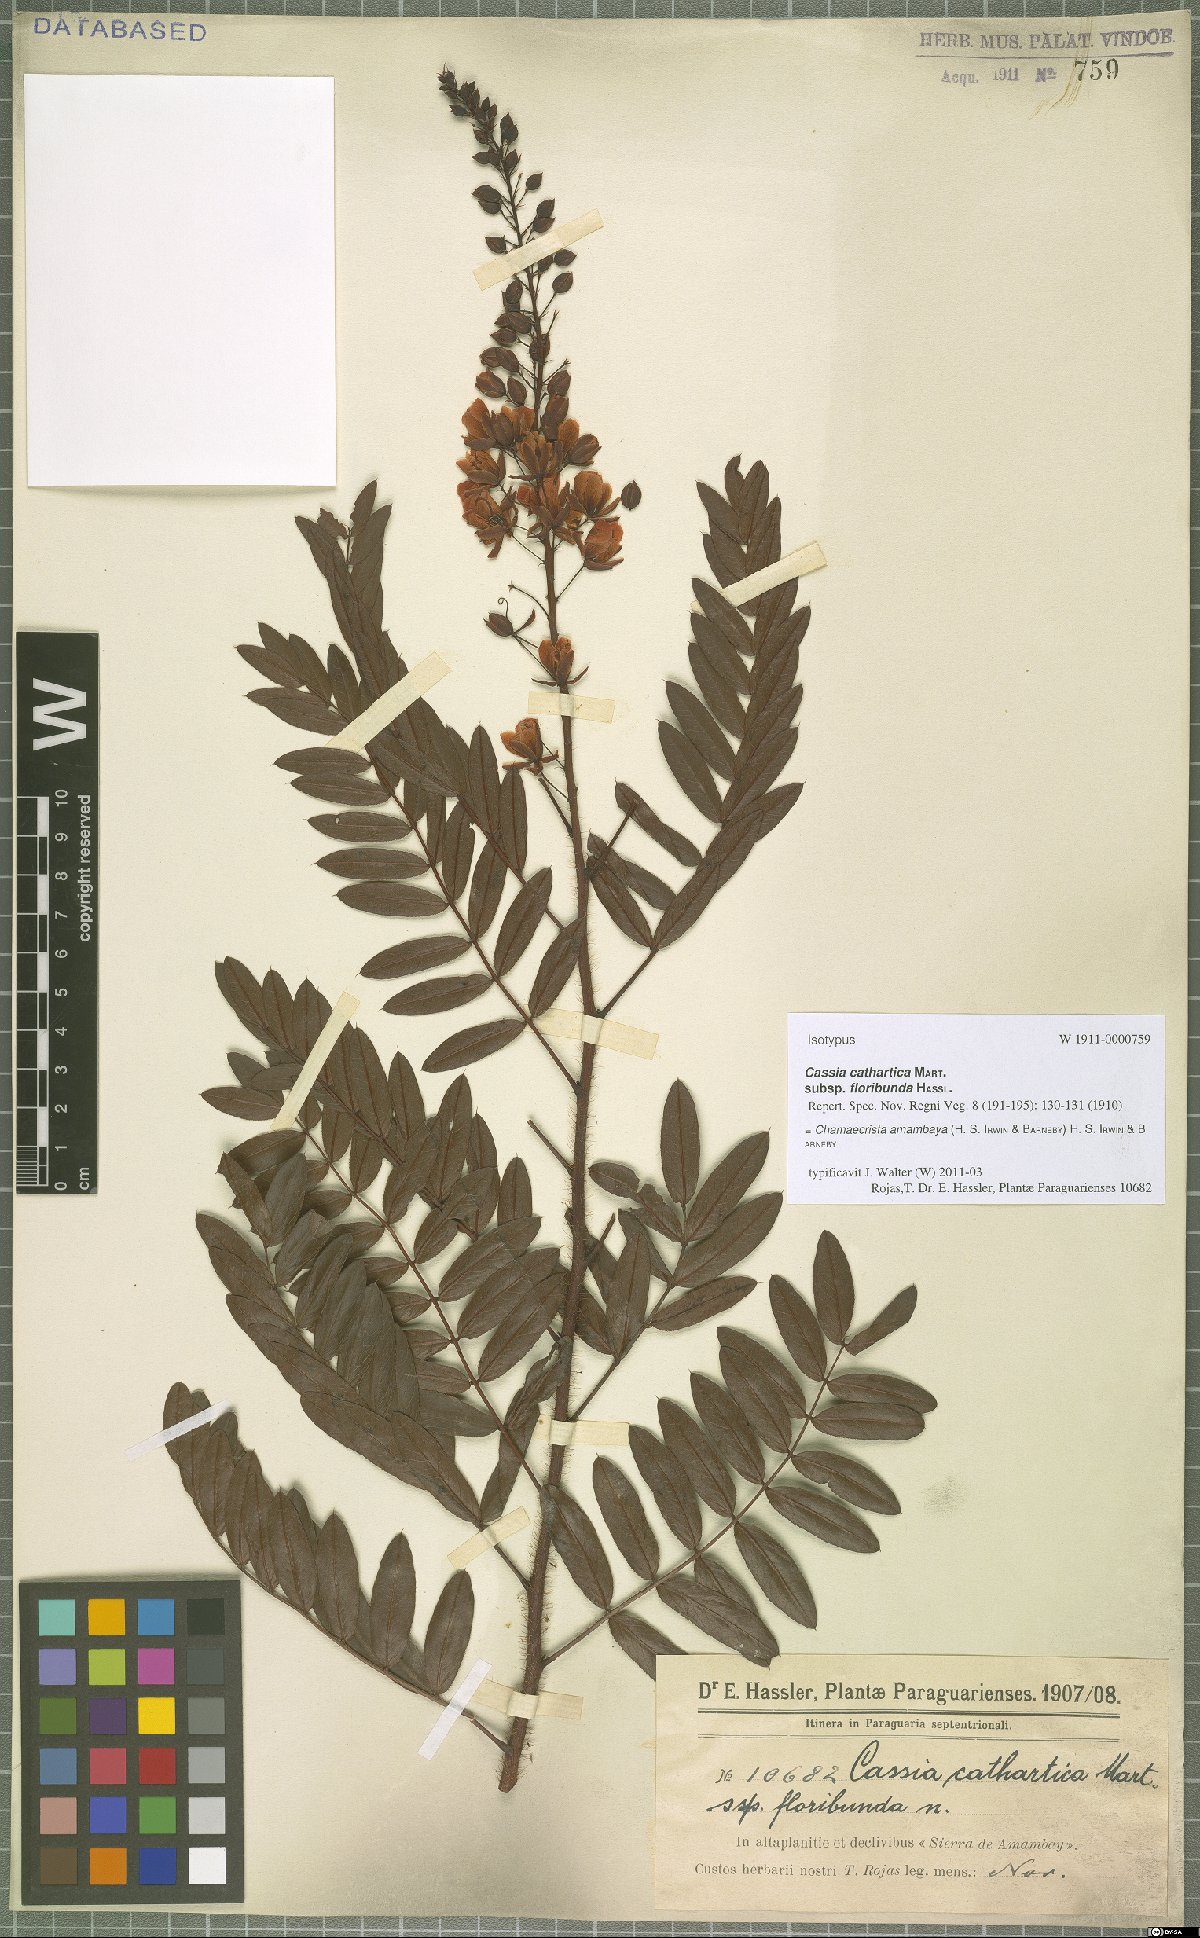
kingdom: Plantae
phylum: Tracheophyta
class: Magnoliopsida
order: Fabales
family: Fabaceae
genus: Chamaecrista
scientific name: Chamaecrista amambaya
